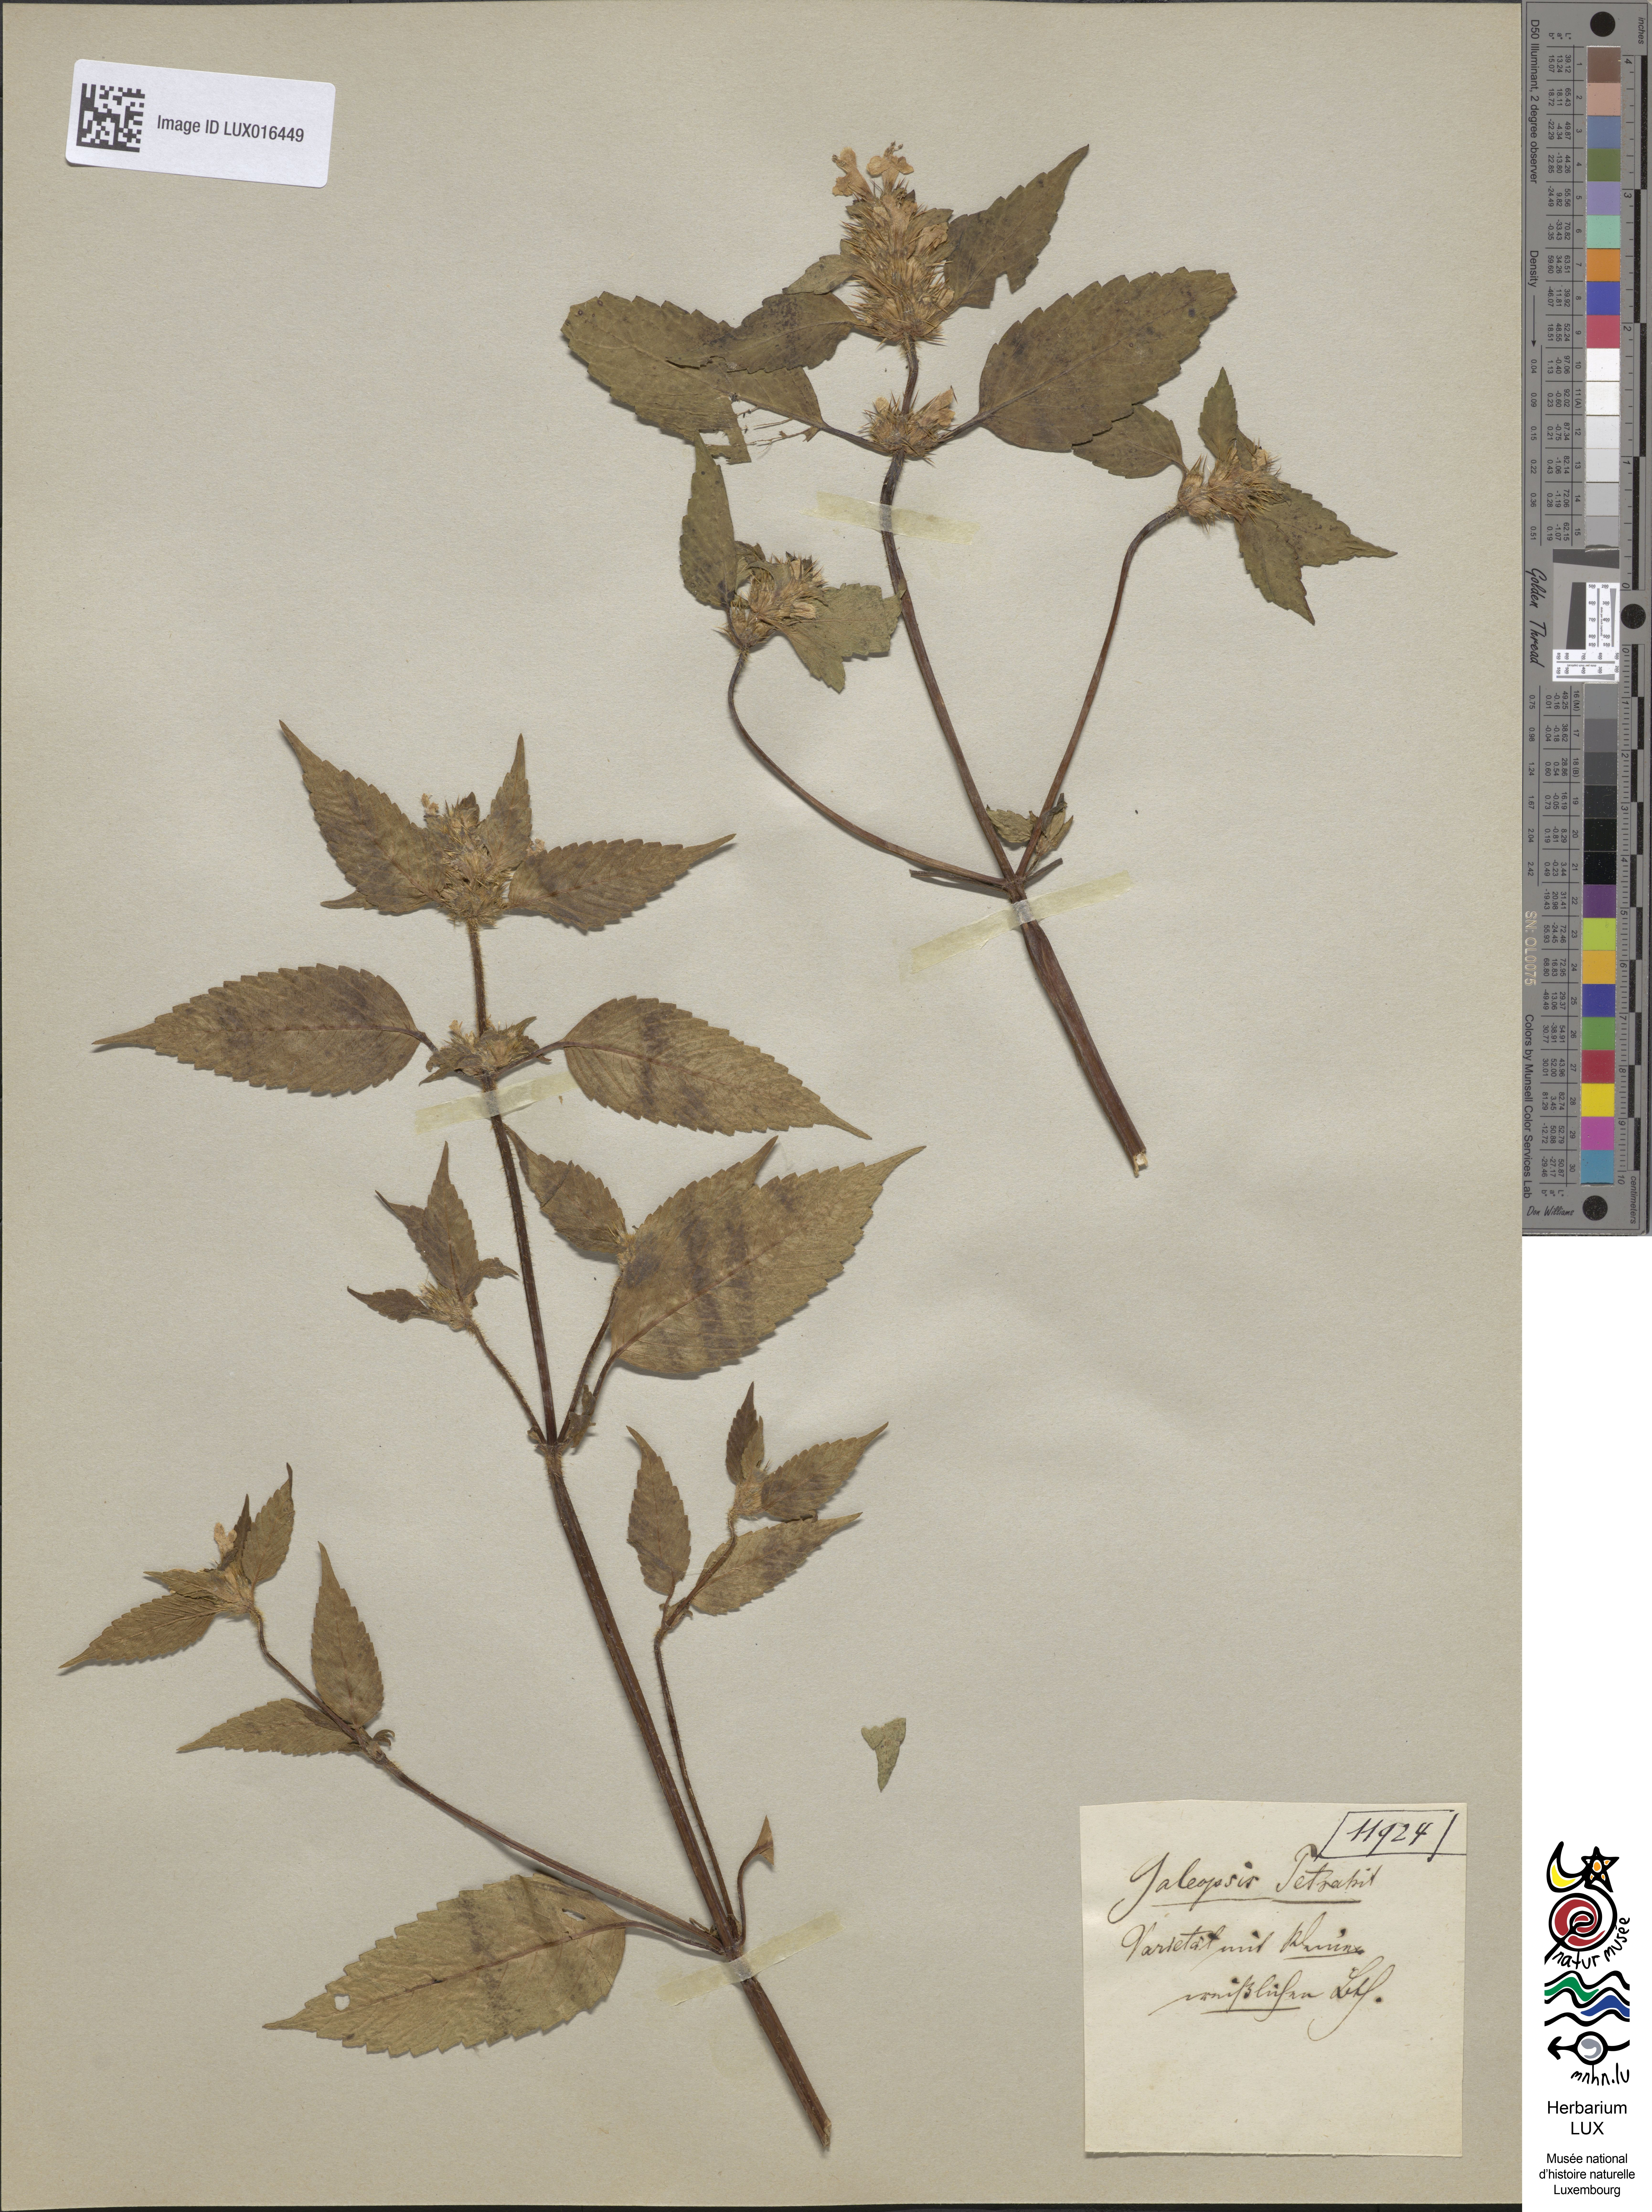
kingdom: Plantae
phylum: Tracheophyta
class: Magnoliopsida
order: Lamiales
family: Lamiaceae
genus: Galeopsis
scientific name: Galeopsis tetrahit
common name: Common hemp-nettle
